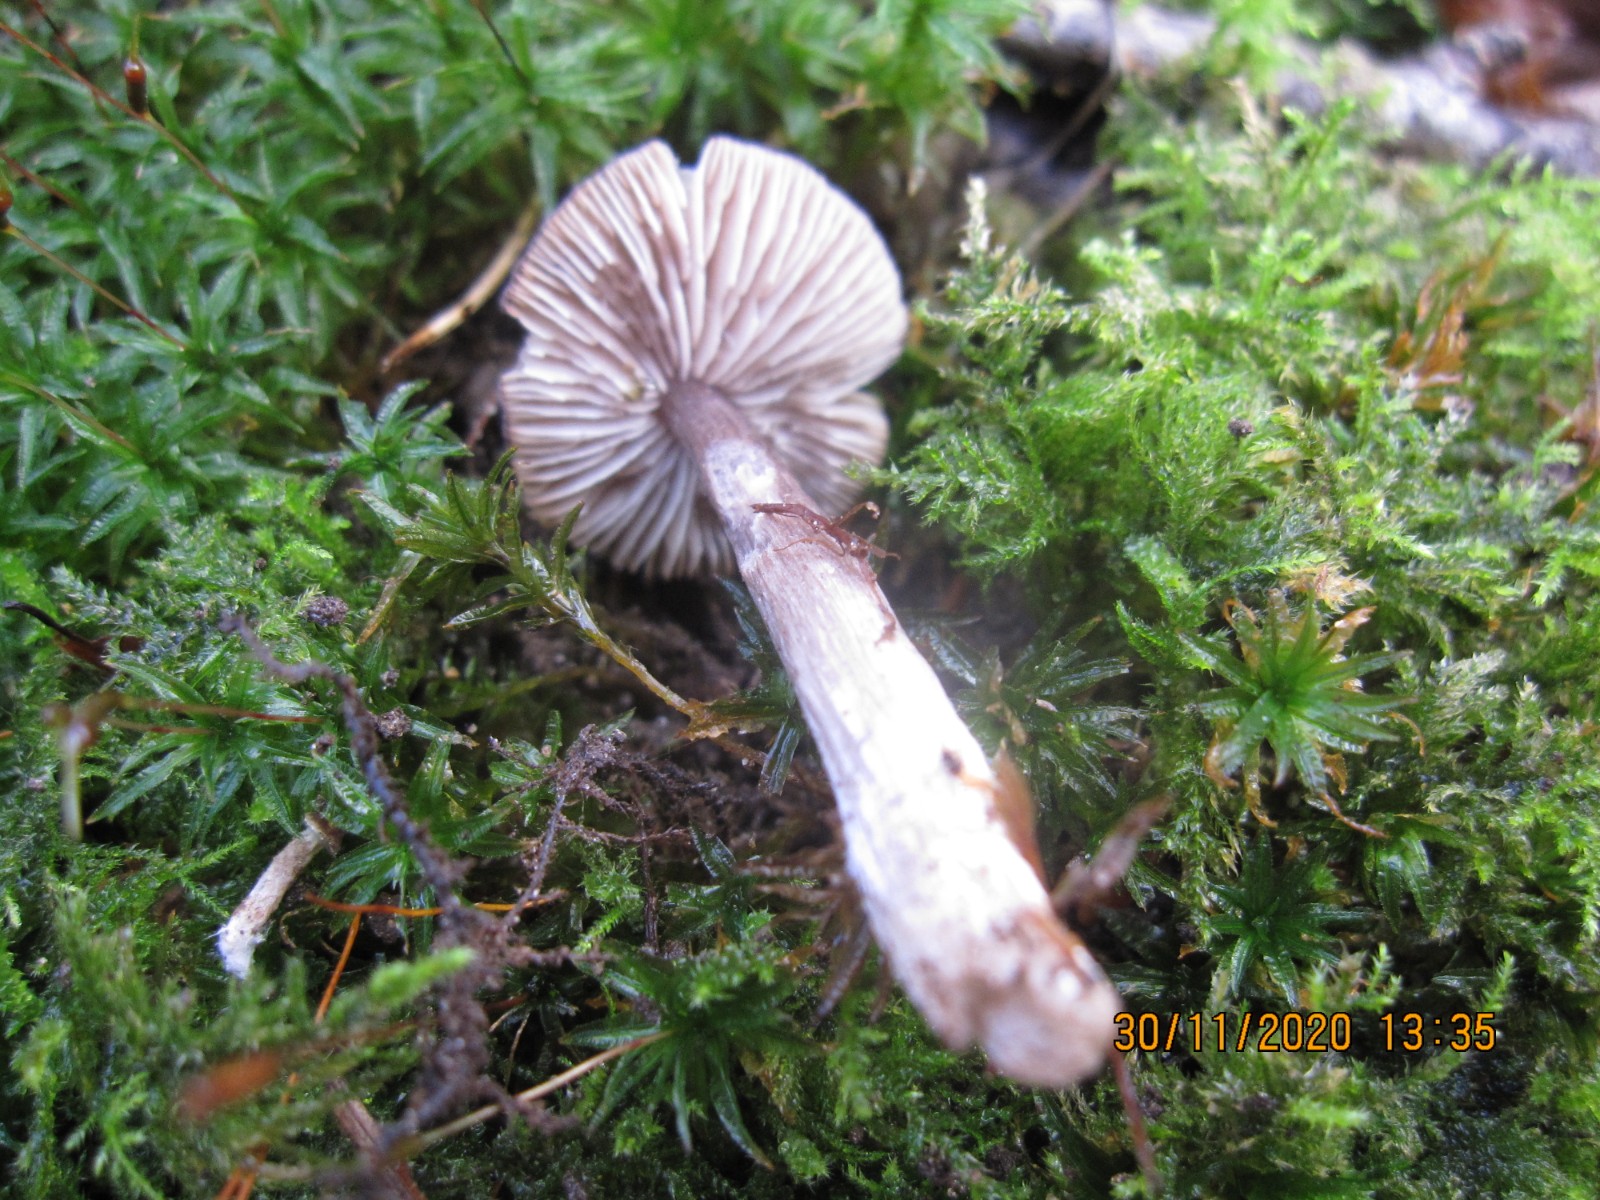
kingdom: Fungi
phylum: Basidiomycota
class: Agaricomycetes
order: Agaricales
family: Entolomataceae
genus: Entoloma
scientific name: Entoloma waverenii
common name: trævlet rødblad
